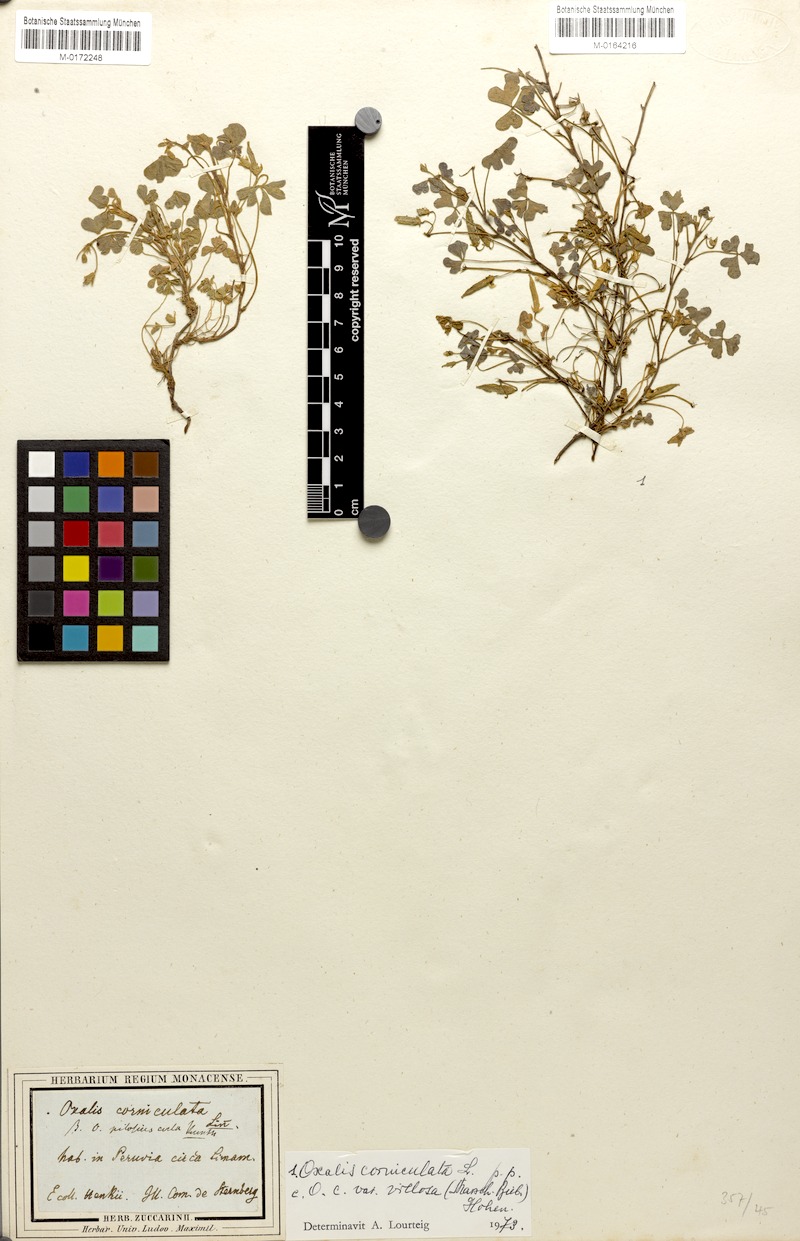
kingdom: Plantae
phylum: Tracheophyta
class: Magnoliopsida
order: Oxalidales
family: Oxalidaceae
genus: Oxalis
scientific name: Oxalis corniculata
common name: Procumbent yellow-sorrel
